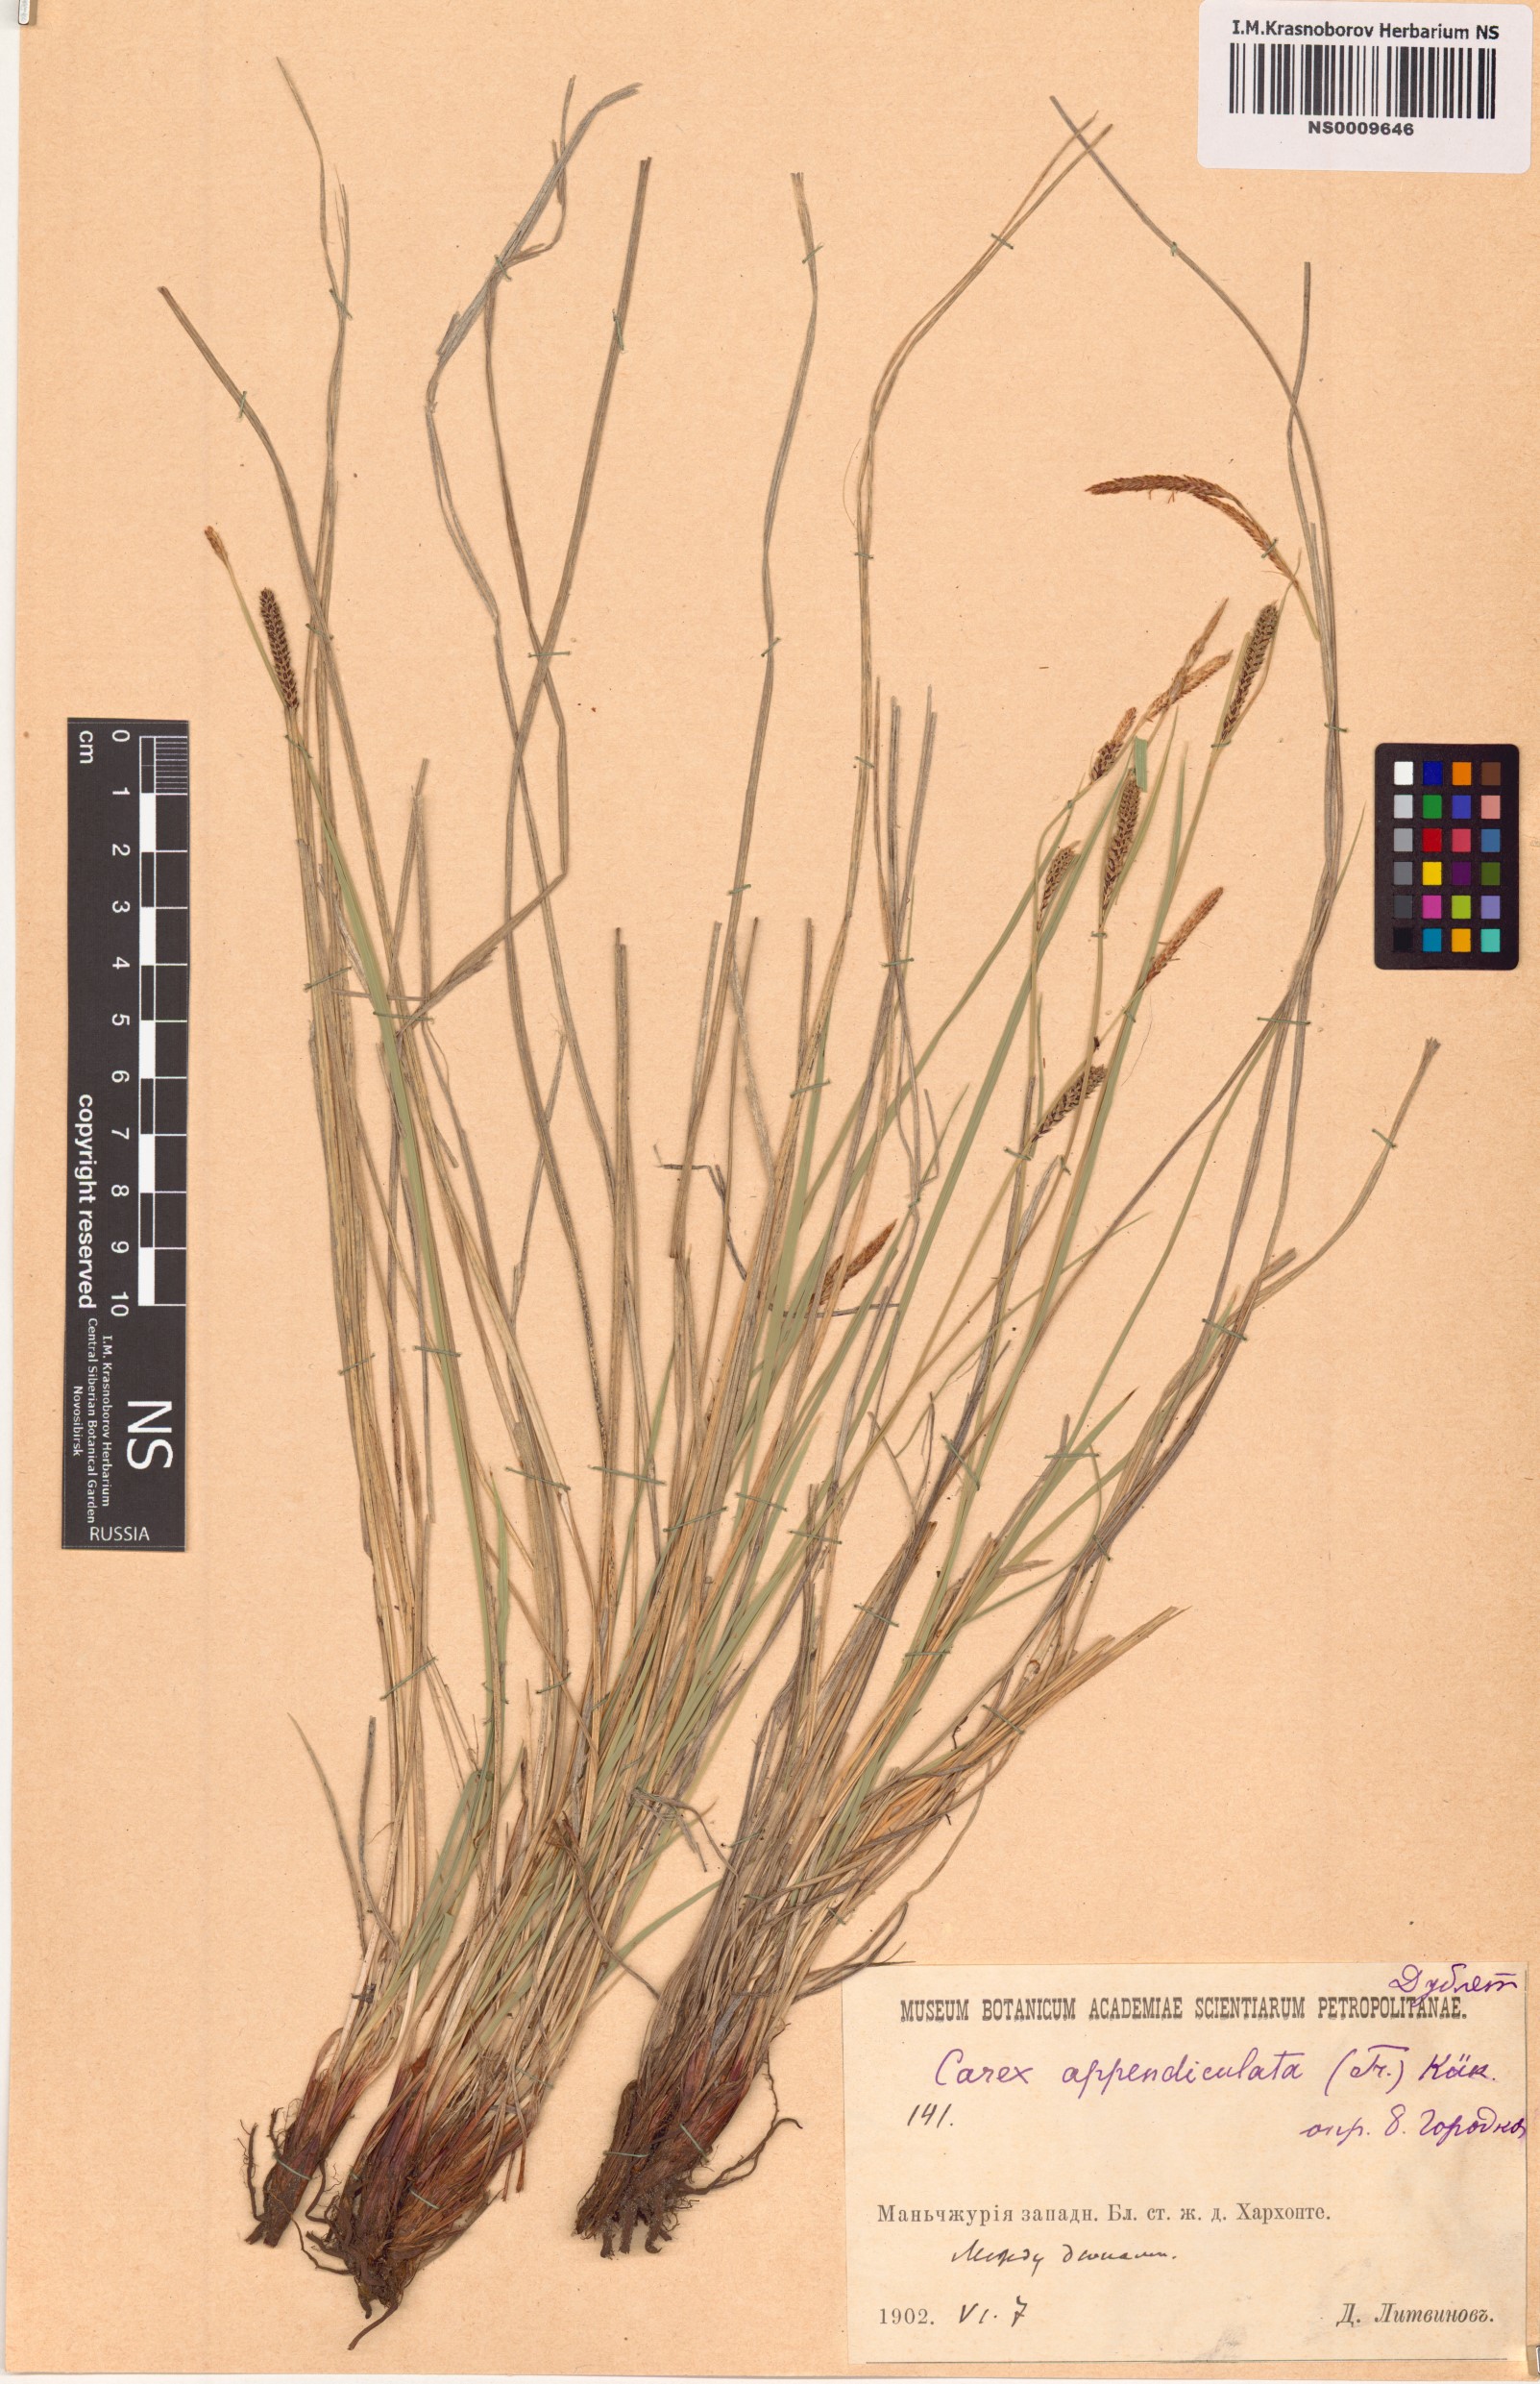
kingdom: Plantae
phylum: Tracheophyta
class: Liliopsida
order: Poales
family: Cyperaceae
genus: Carex
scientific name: Carex appendiculata
